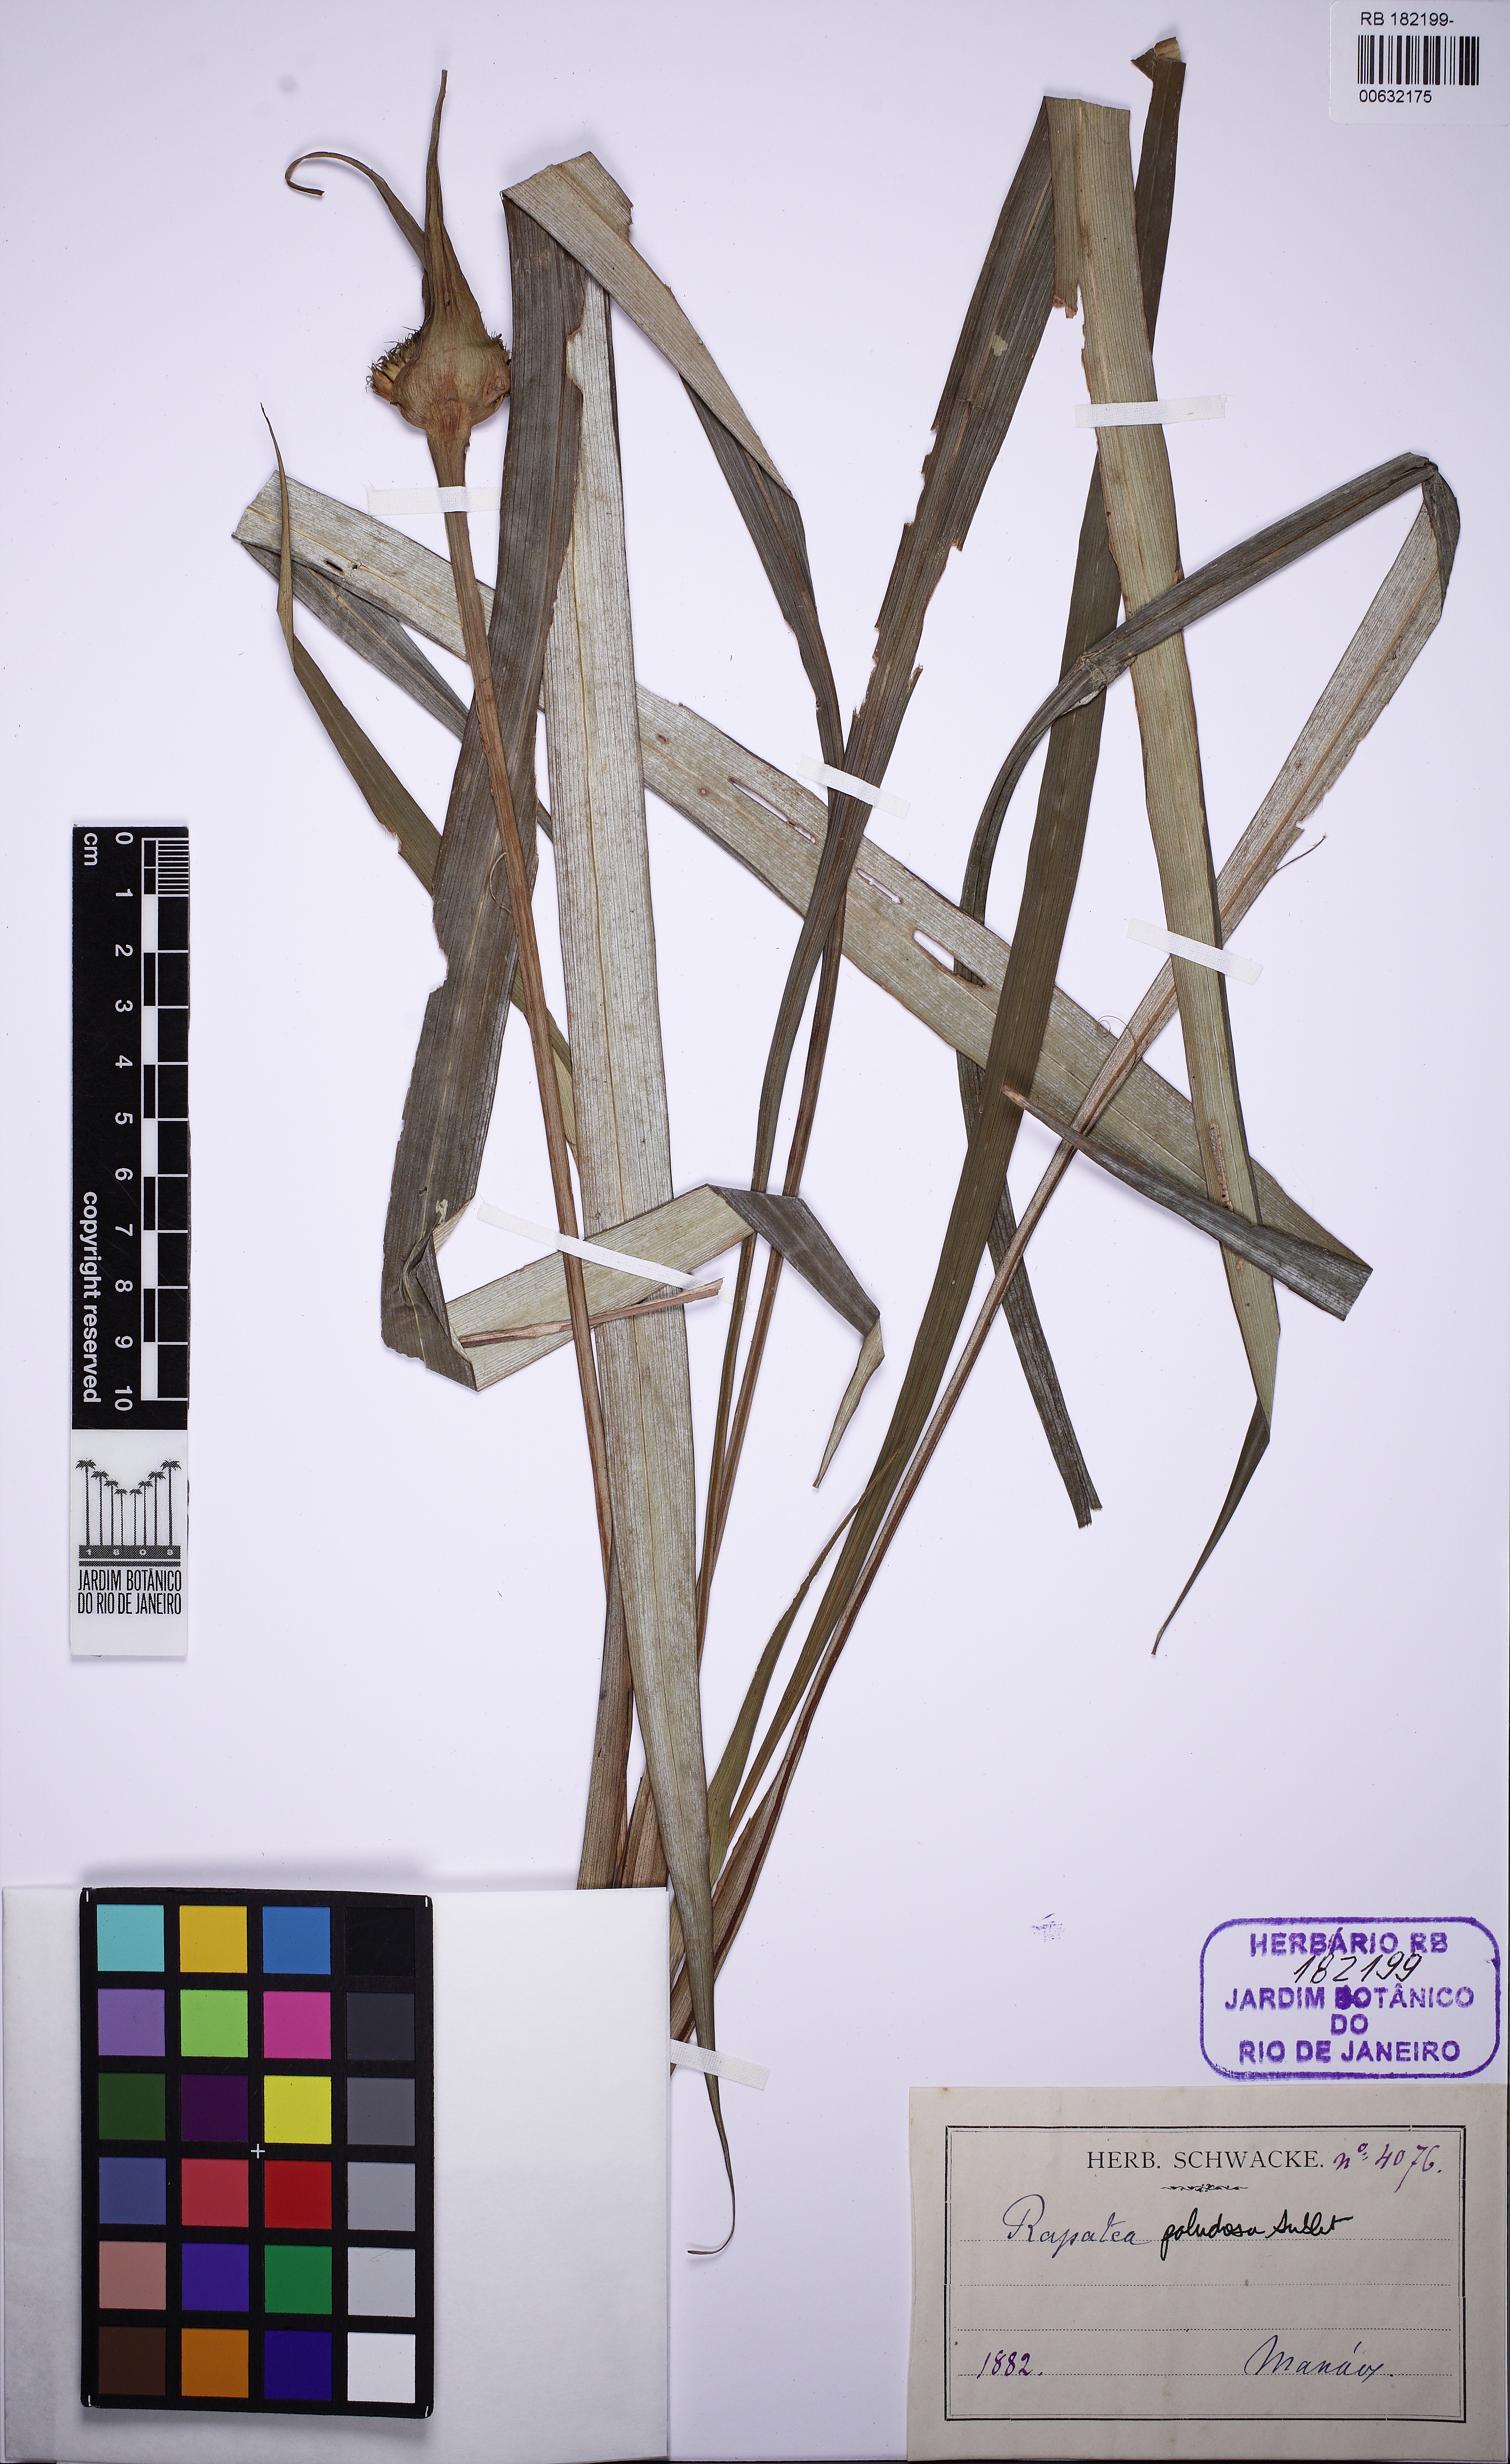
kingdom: Plantae
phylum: Tracheophyta
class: Liliopsida
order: Poales
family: Rapateaceae
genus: Rapatea
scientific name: Rapatea paludosa
